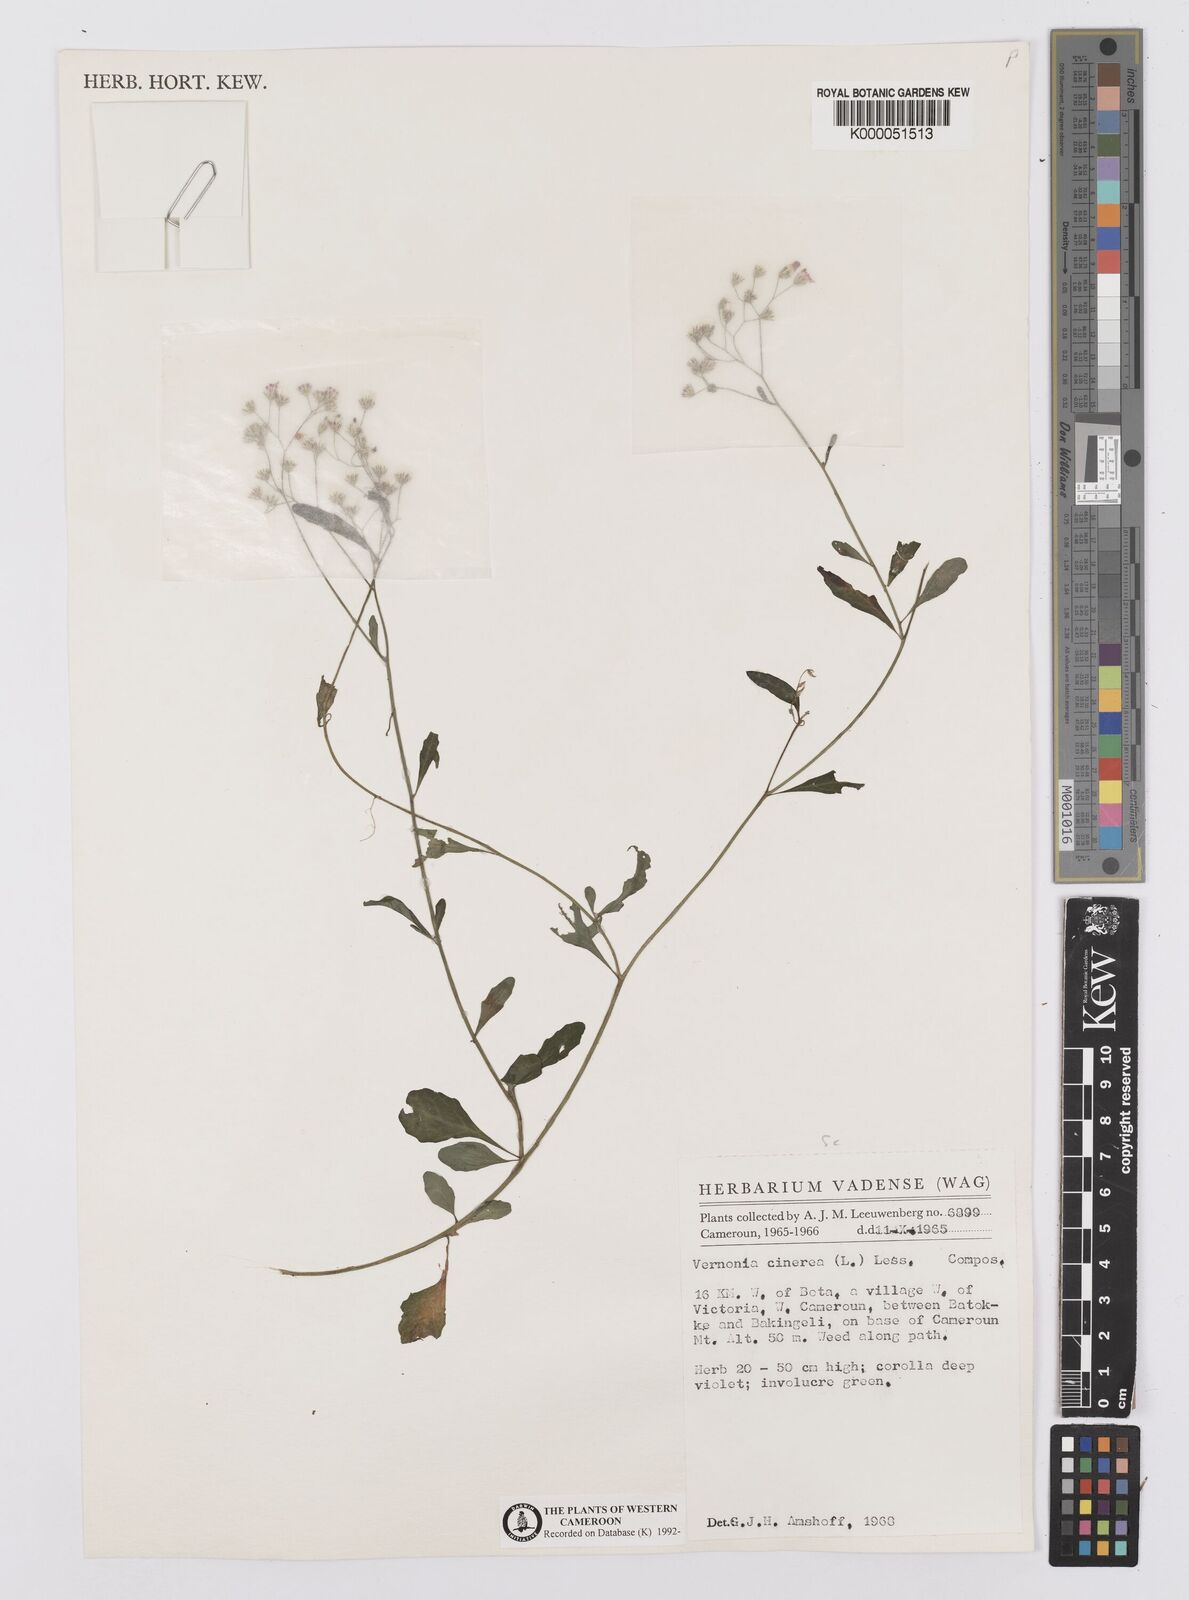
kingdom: Plantae
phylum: Tracheophyta
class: Magnoliopsida
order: Asterales
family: Asteraceae
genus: Cyanthillium
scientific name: Cyanthillium cinereum
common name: Little ironweed
